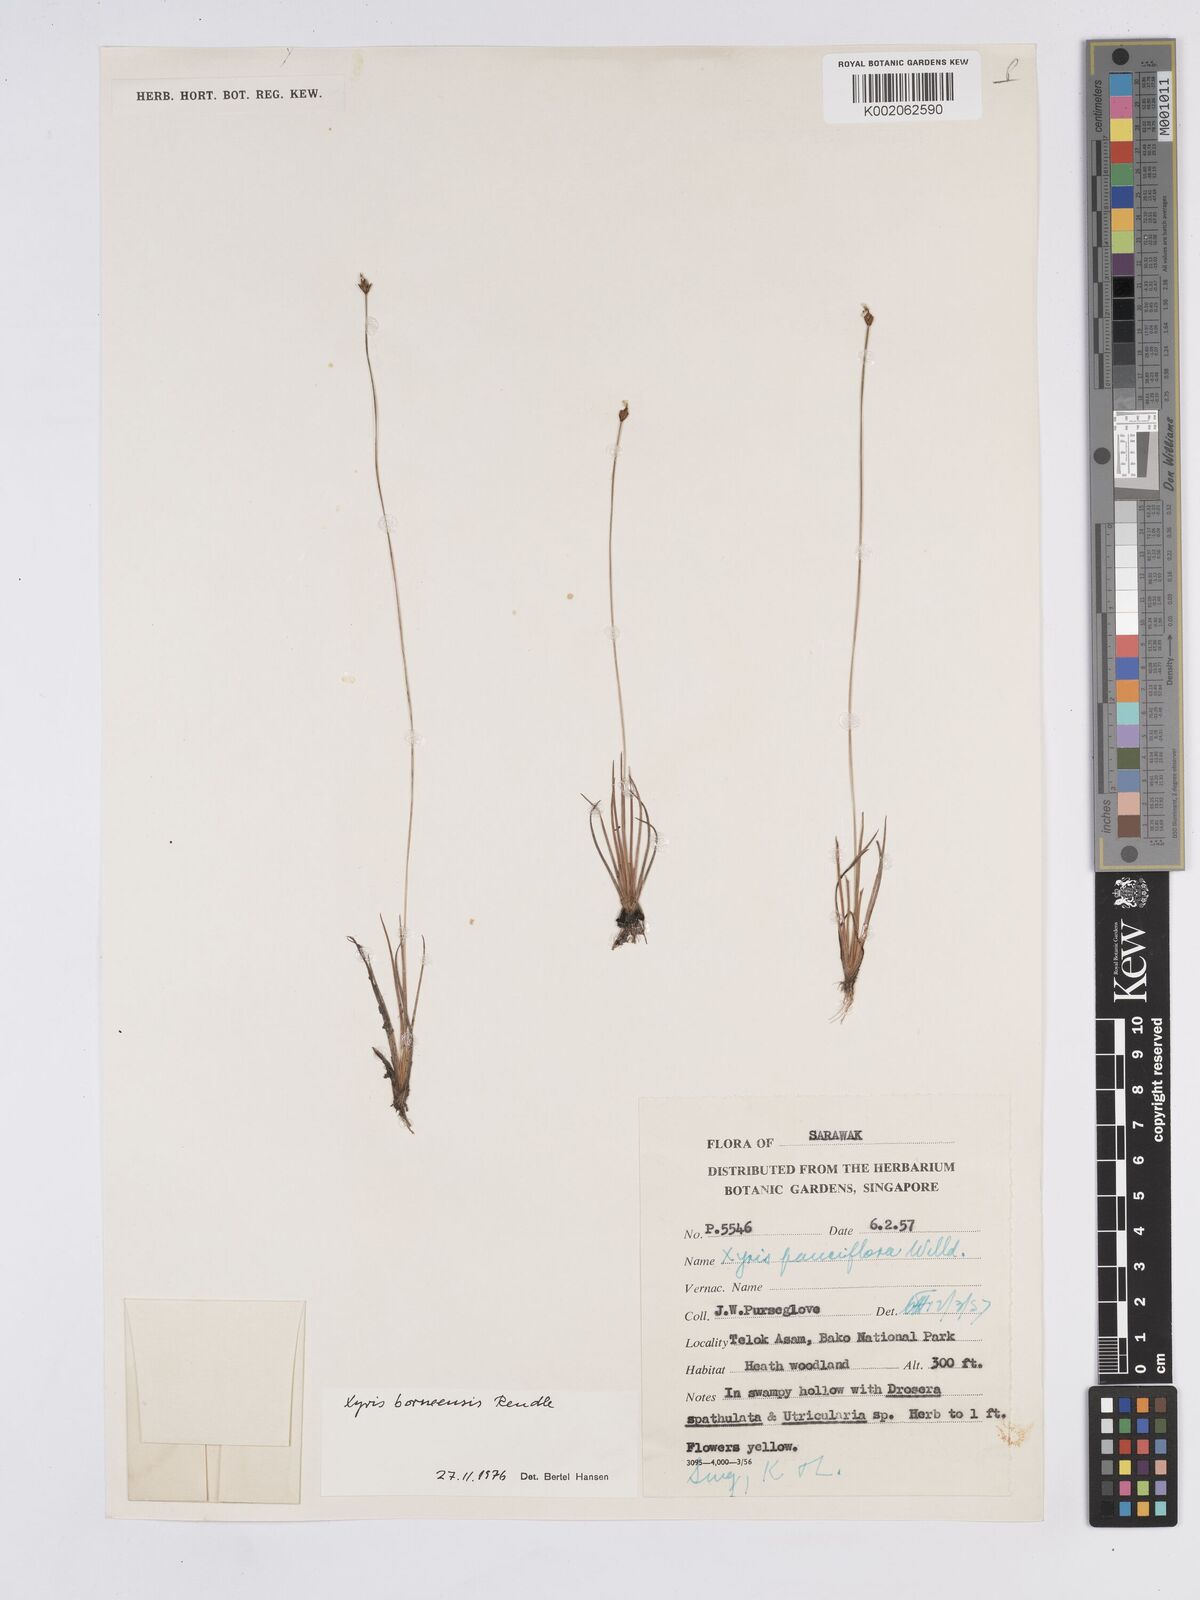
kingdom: Plantae
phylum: Tracheophyta
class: Liliopsida
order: Poales
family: Xyridaceae
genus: Xyris
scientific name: Xyris bancana
